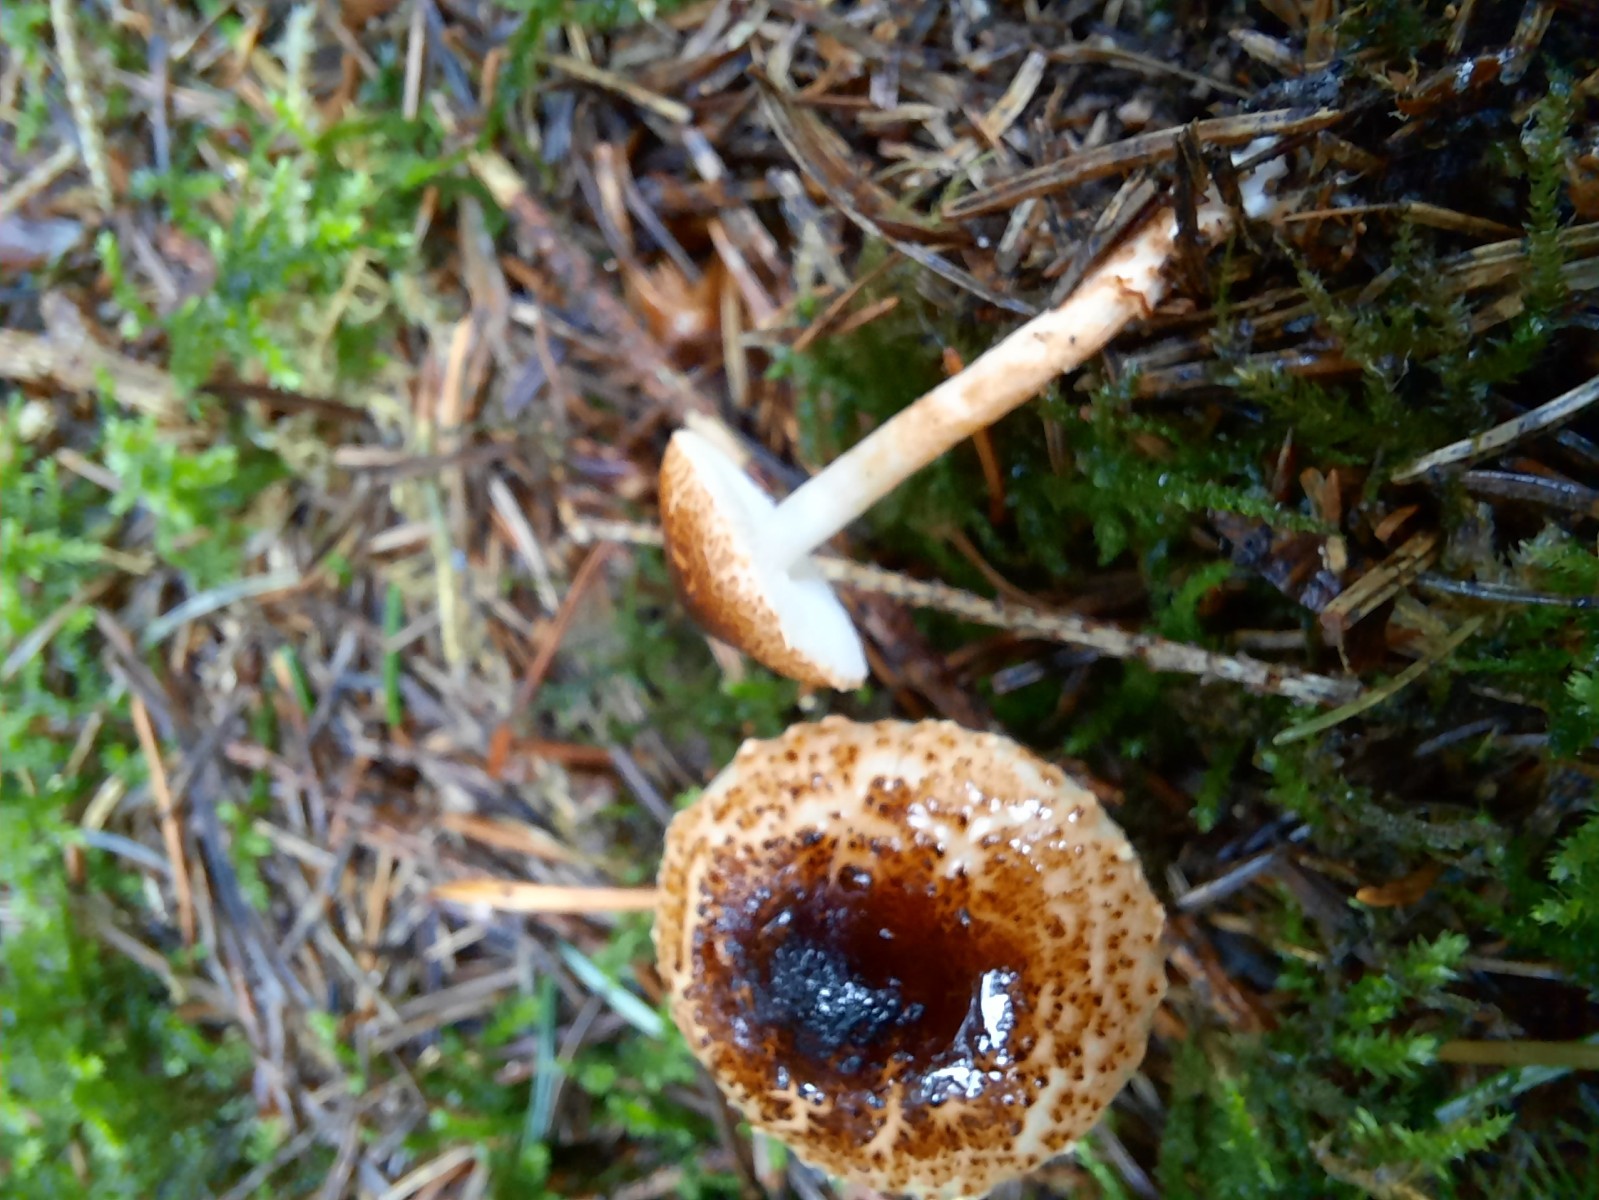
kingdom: Fungi
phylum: Basidiomycota
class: Agaricomycetes
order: Agaricales
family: Agaricaceae
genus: Lepiota
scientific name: Lepiota castanea
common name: kastaniebrun parasolhat
